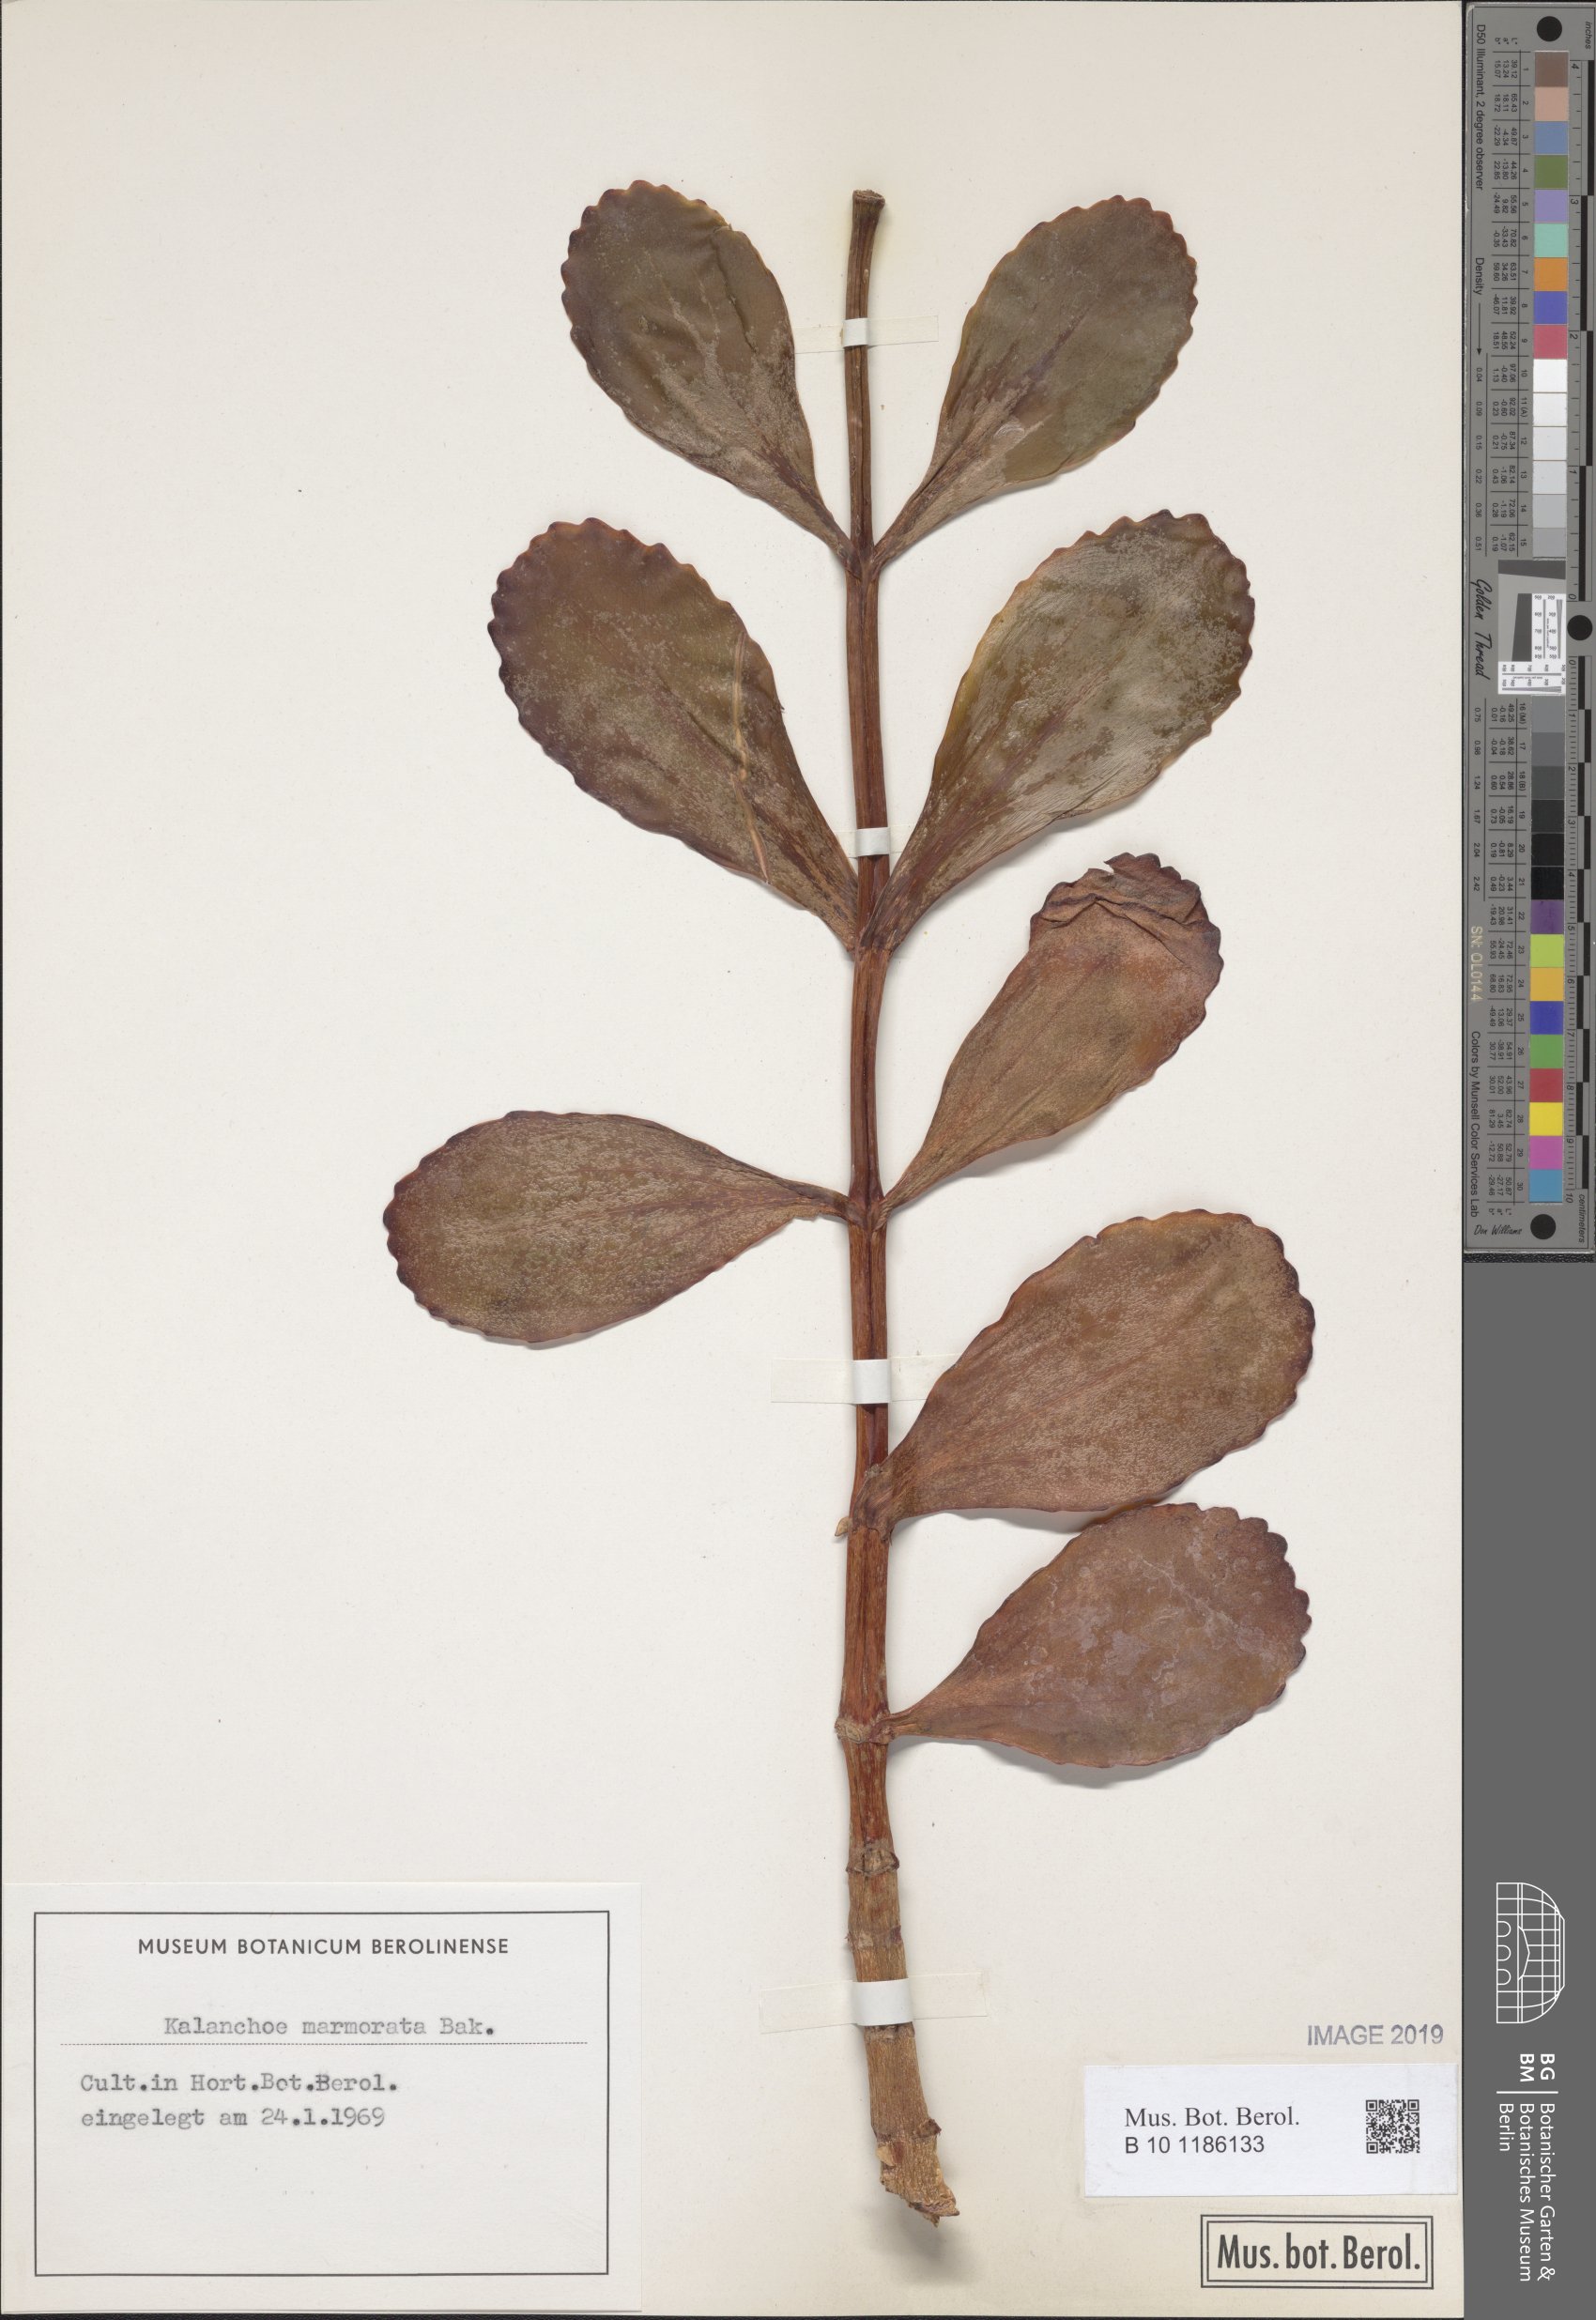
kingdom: Plantae
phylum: Tracheophyta
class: Magnoliopsida
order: Saxifragales
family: Crassulaceae
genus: Kalanchoe
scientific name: Kalanchoe marmorata
